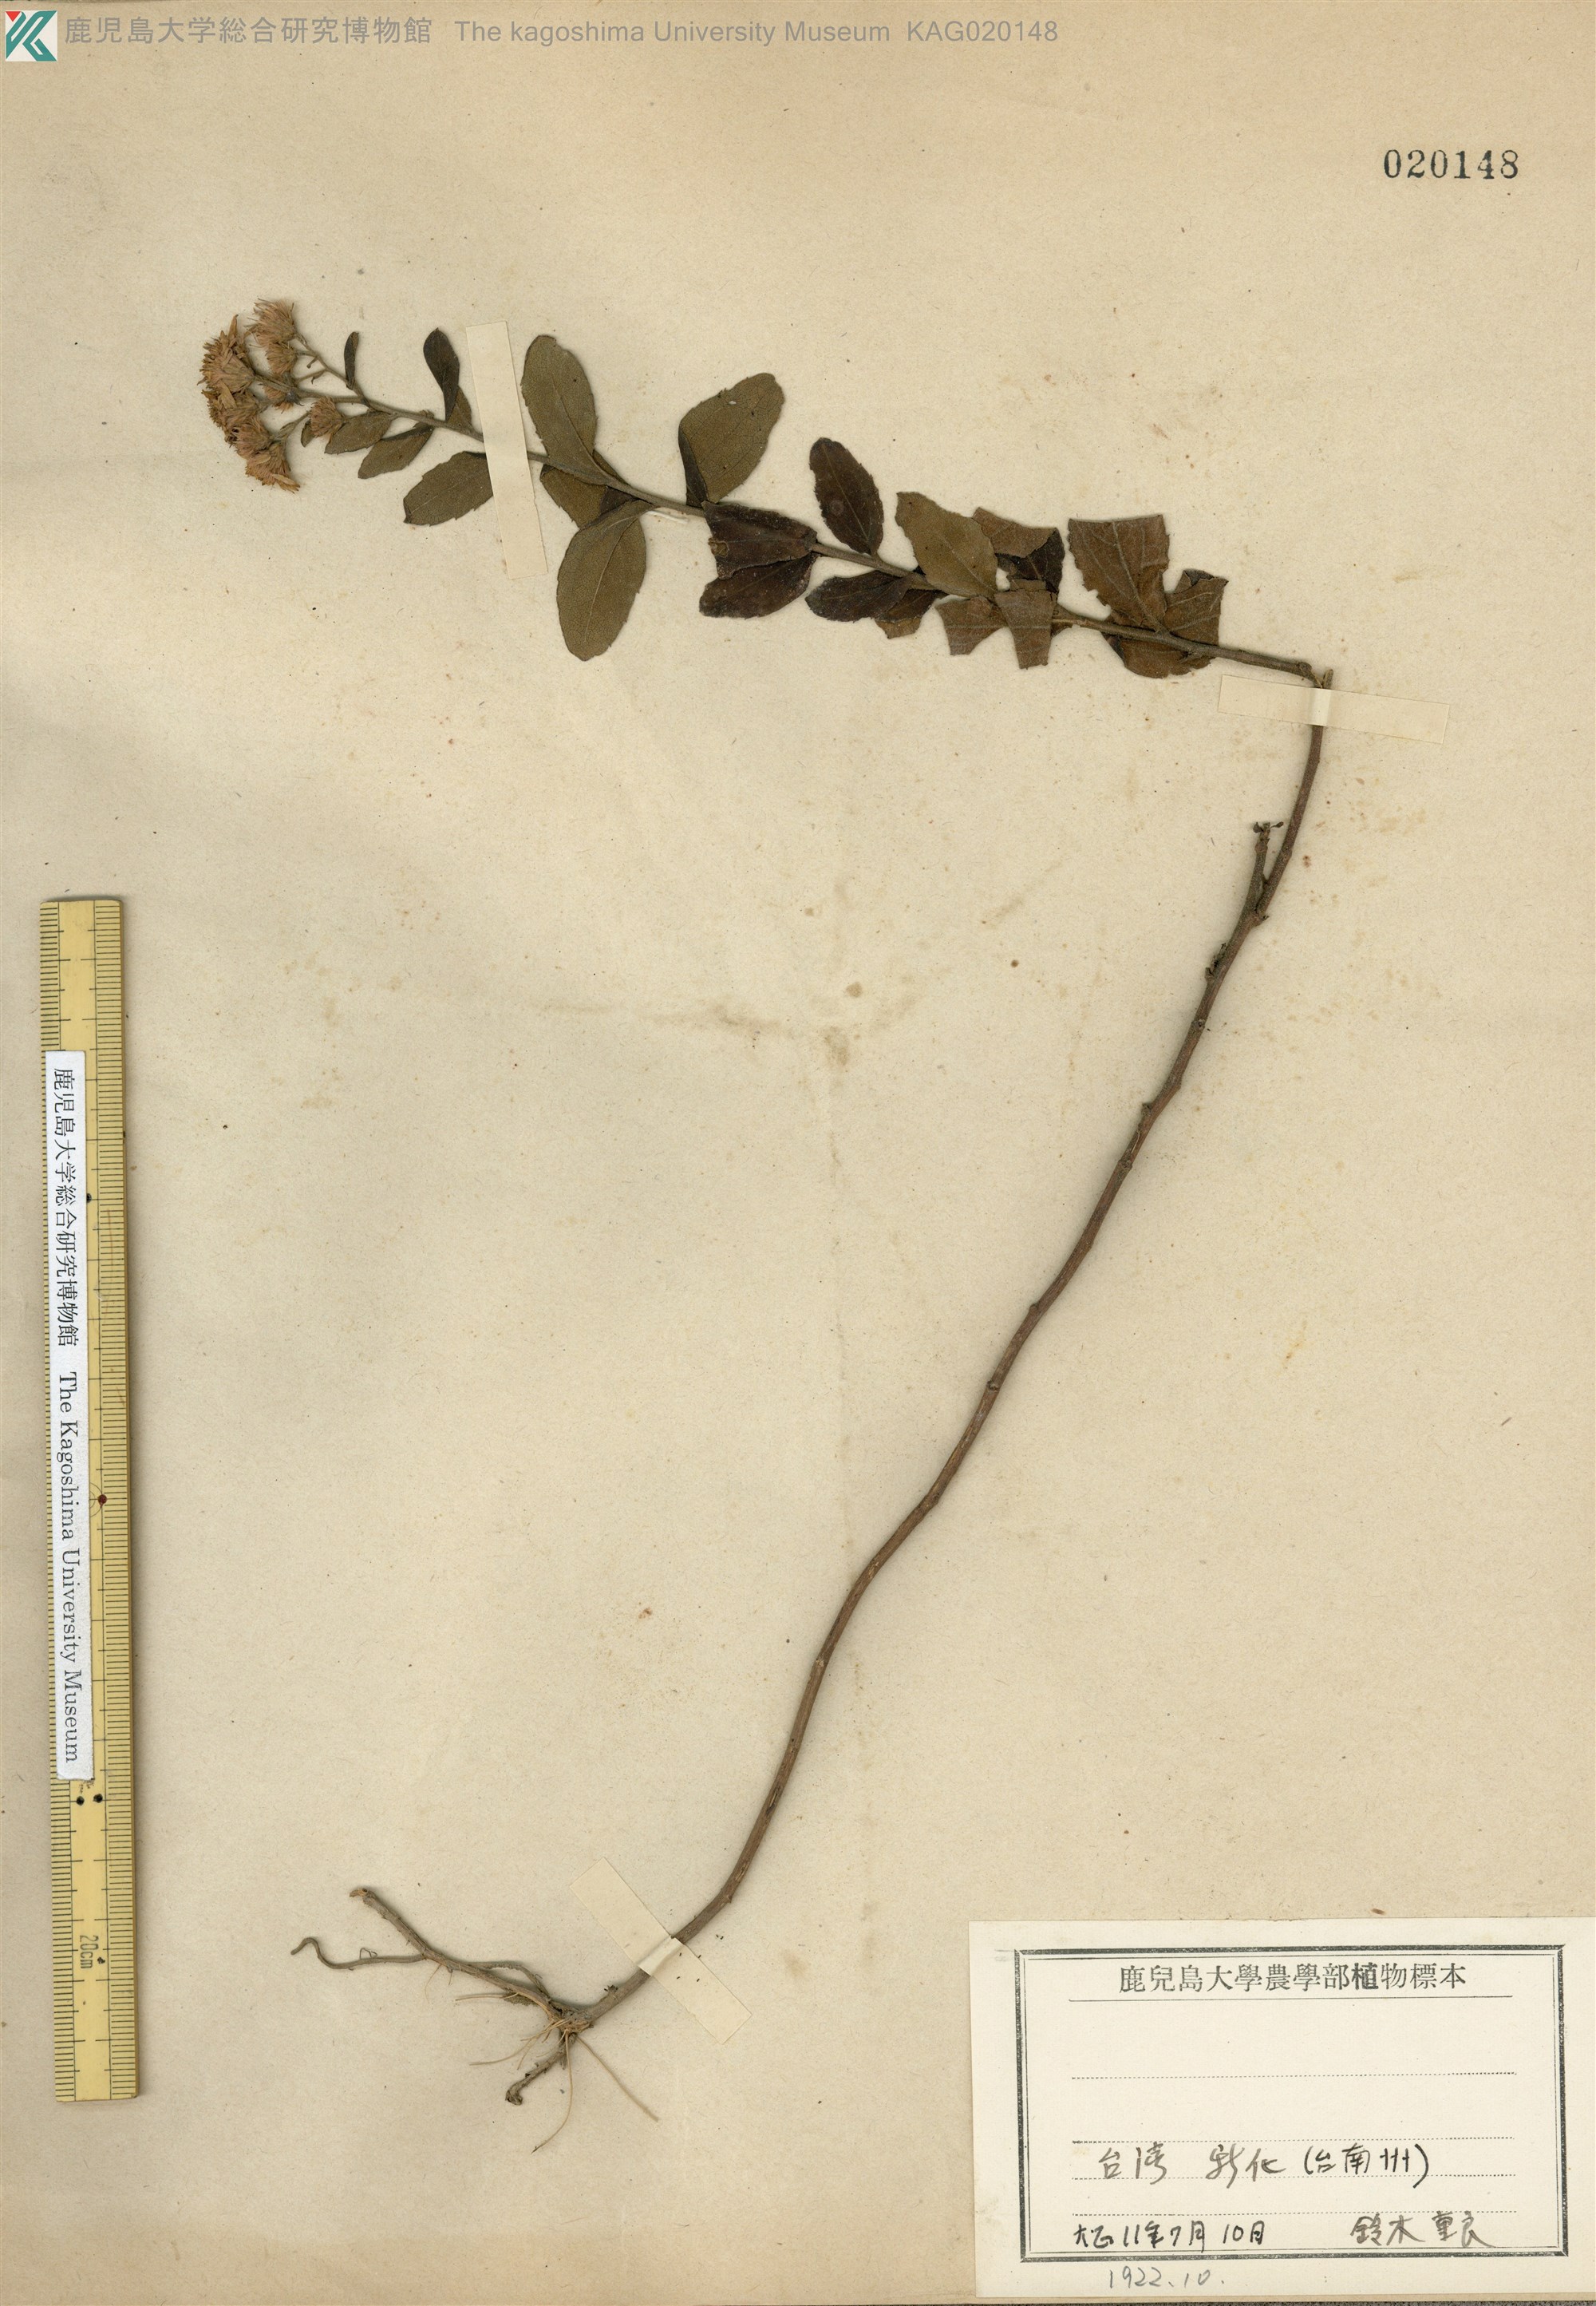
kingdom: Plantae
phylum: Tracheophyta
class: Magnoliopsida
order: Asterales
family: Asteraceae
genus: Aster
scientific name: Aster ageratoides
